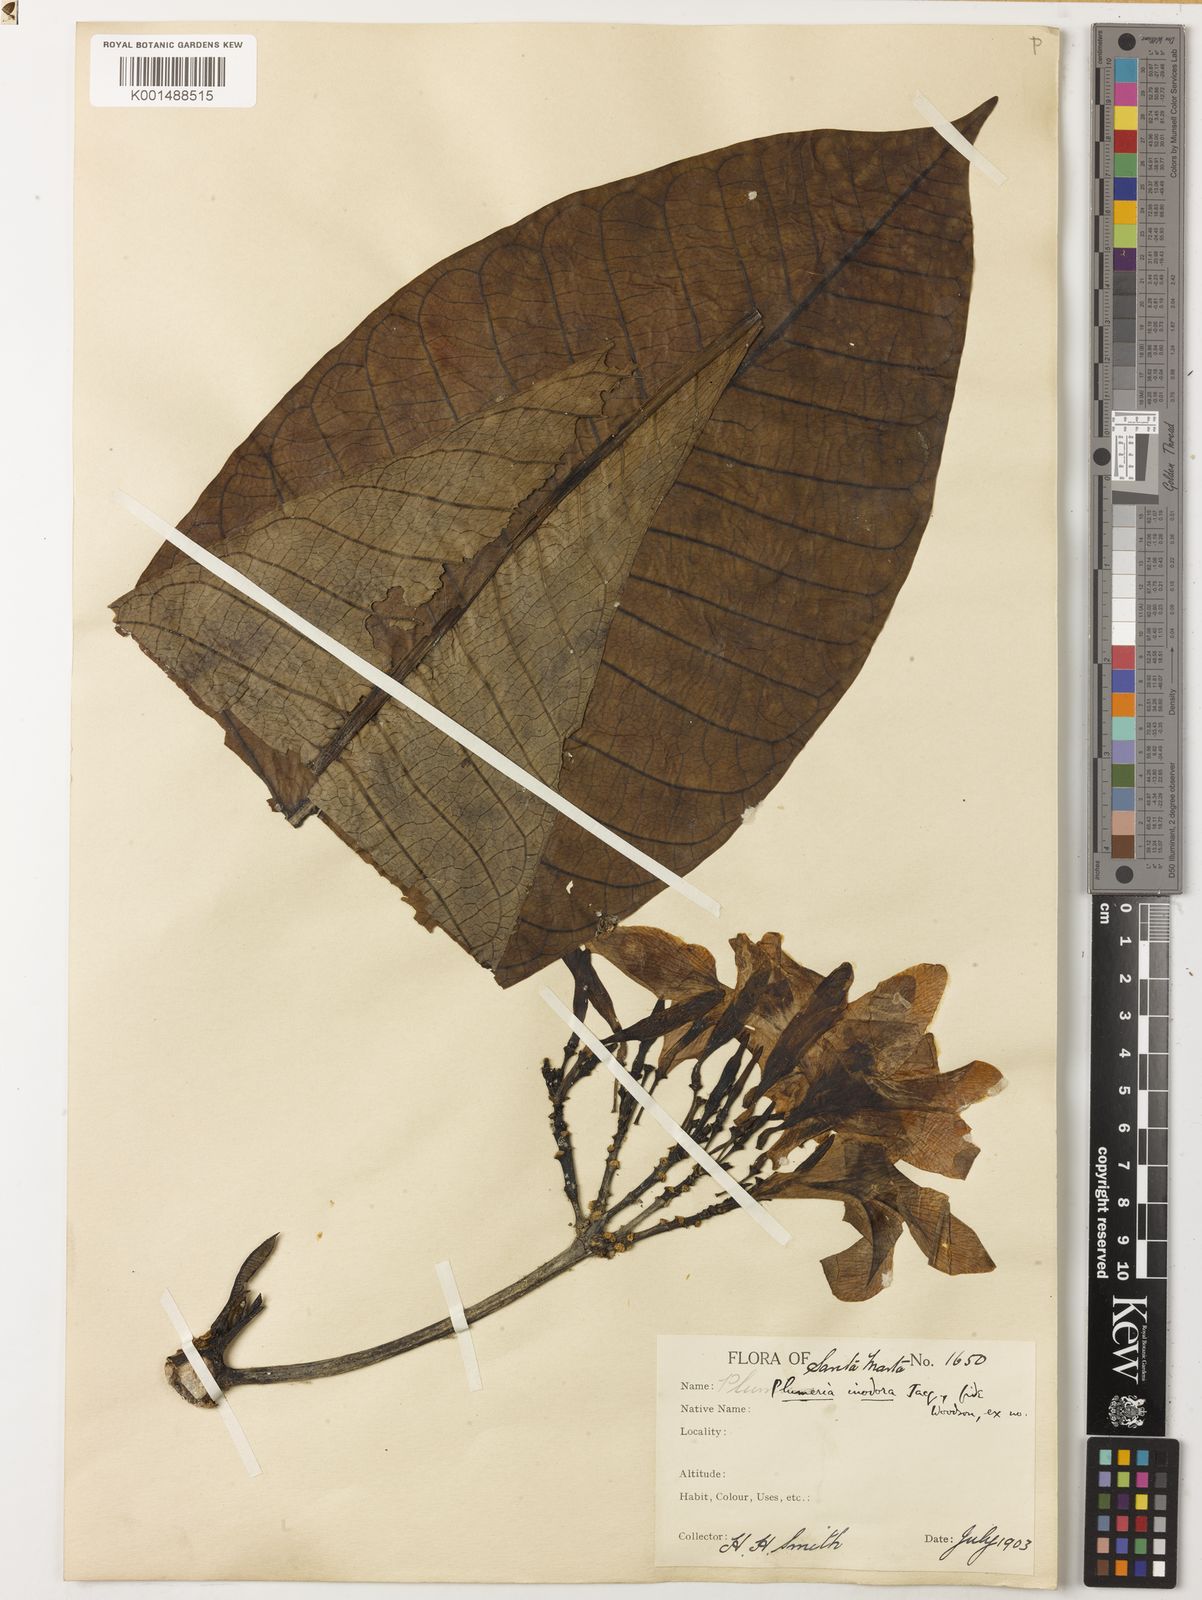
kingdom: Plantae
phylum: Tracheophyta
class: Magnoliopsida
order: Gentianales
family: Apocynaceae
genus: Plumeria
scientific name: Plumeria inodora
